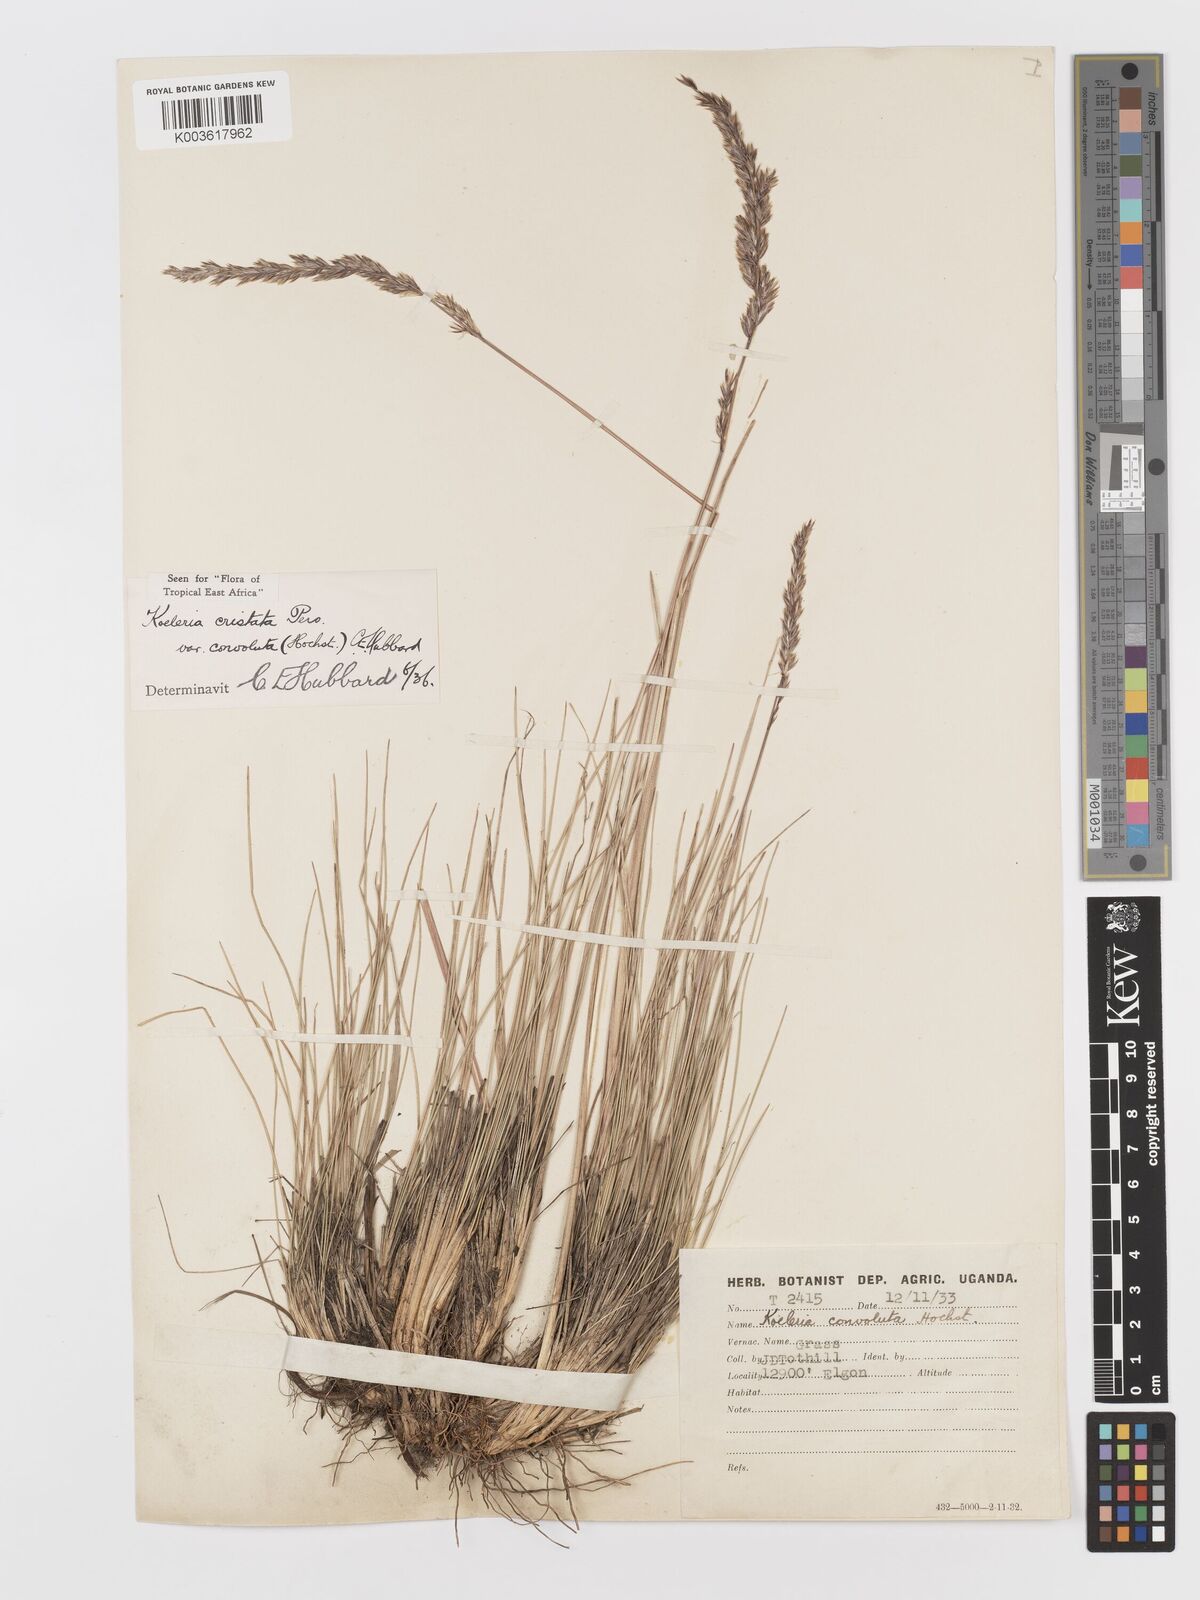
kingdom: Plantae
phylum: Tracheophyta
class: Liliopsida
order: Poales
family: Poaceae
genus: Koeleria
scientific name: Koeleria capensis
